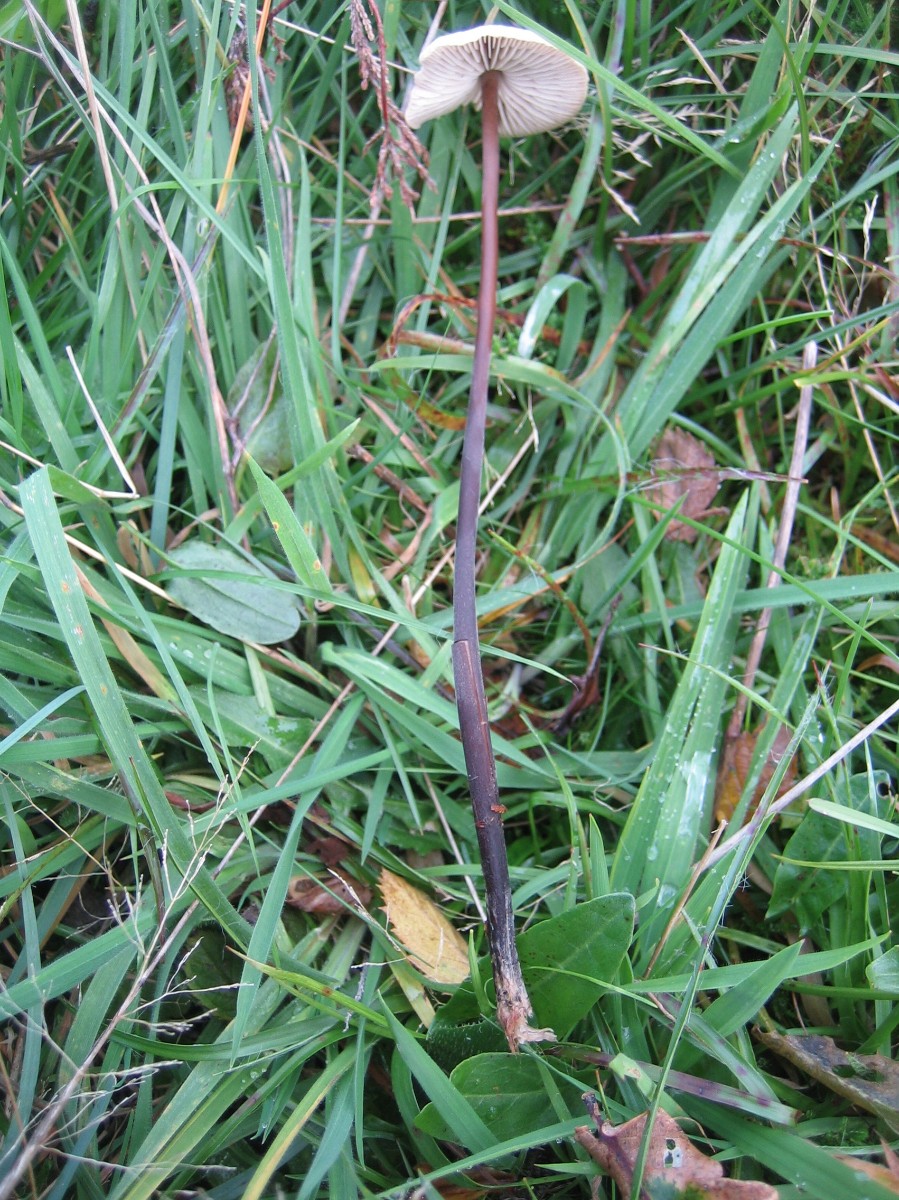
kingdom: Fungi
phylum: Basidiomycota
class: Agaricomycetes
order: Agaricales
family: Omphalotaceae
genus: Mycetinis
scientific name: Mycetinis alliaceus
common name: stor løghat
